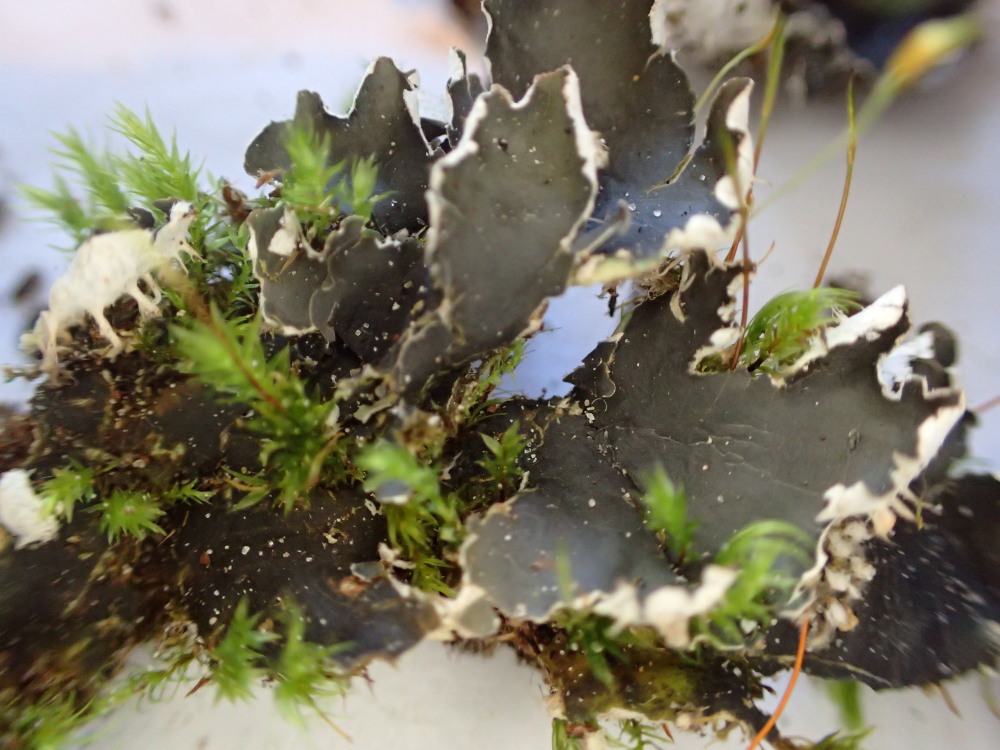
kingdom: Fungi
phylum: Ascomycota
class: Lecanoromycetes
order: Peltigerales
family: Peltigeraceae
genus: Peltigera
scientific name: Peltigera hymenina
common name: hinde-skjoldlav
